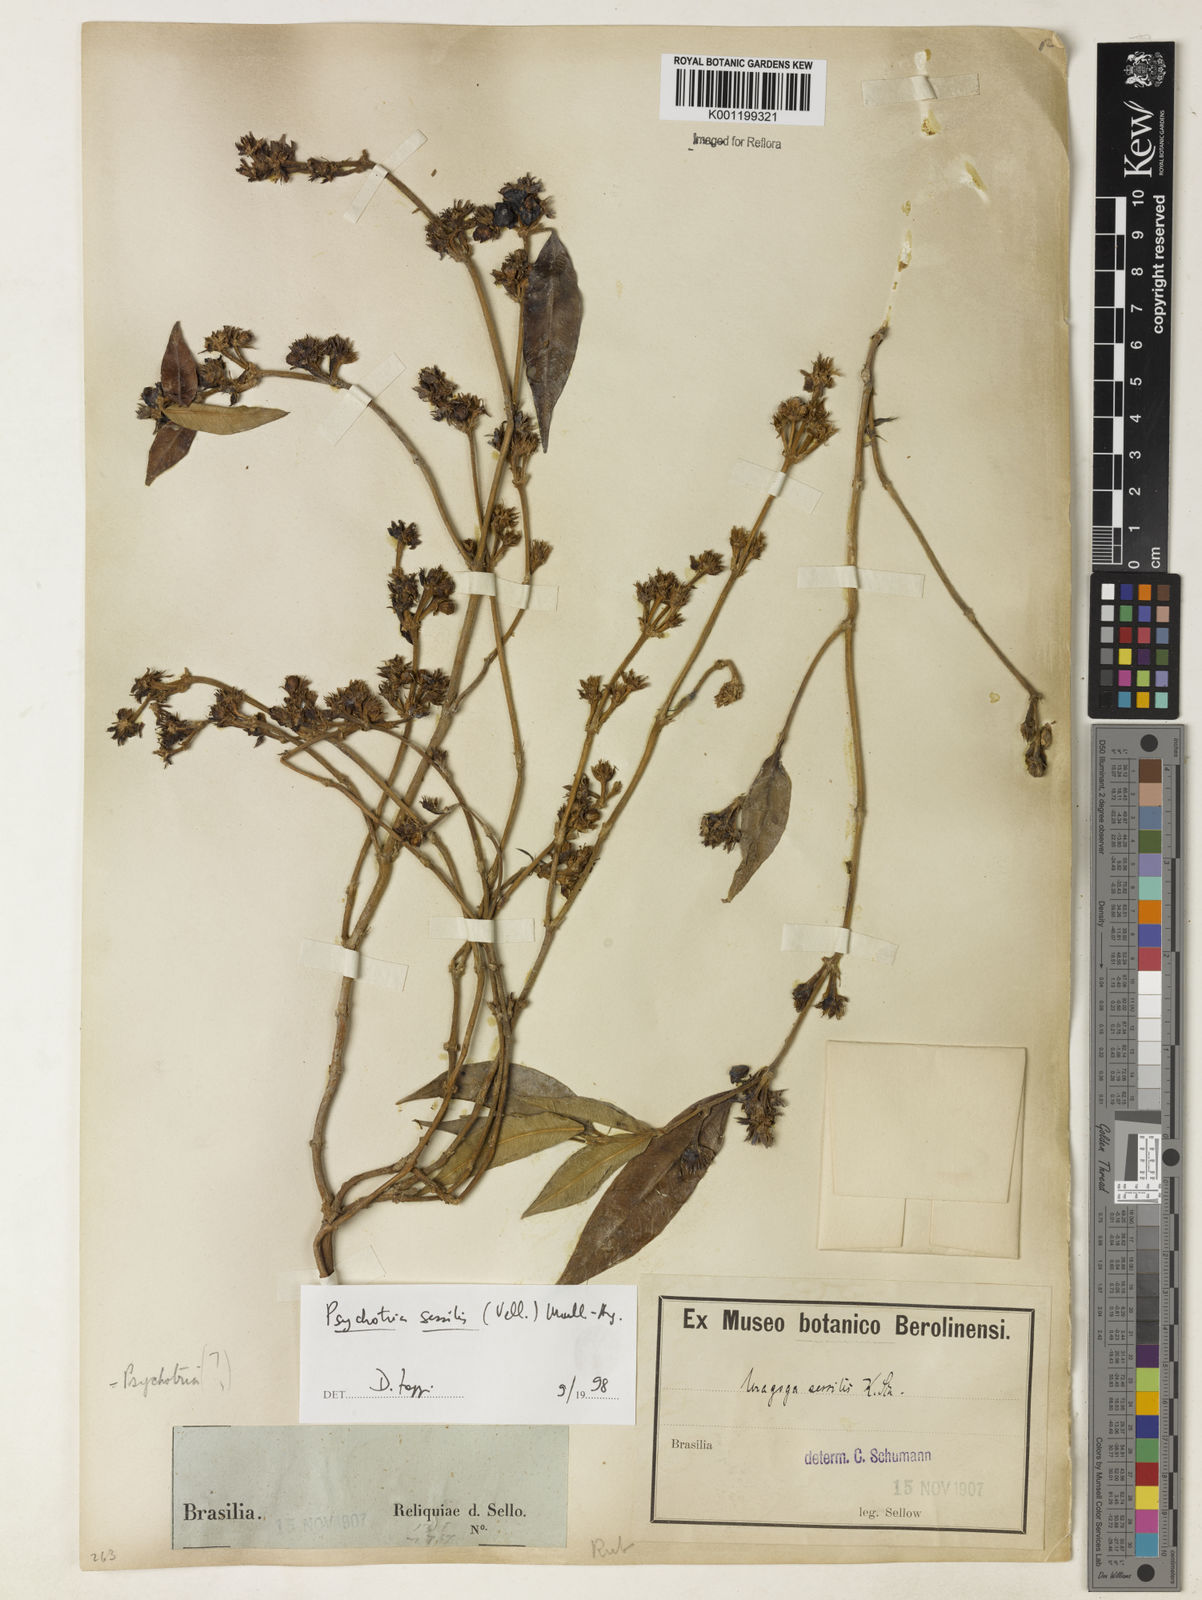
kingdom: Plantae
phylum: Tracheophyta
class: Magnoliopsida
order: Gentianales
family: Rubiaceae
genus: Rudgea
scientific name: Rudgea sessilis
